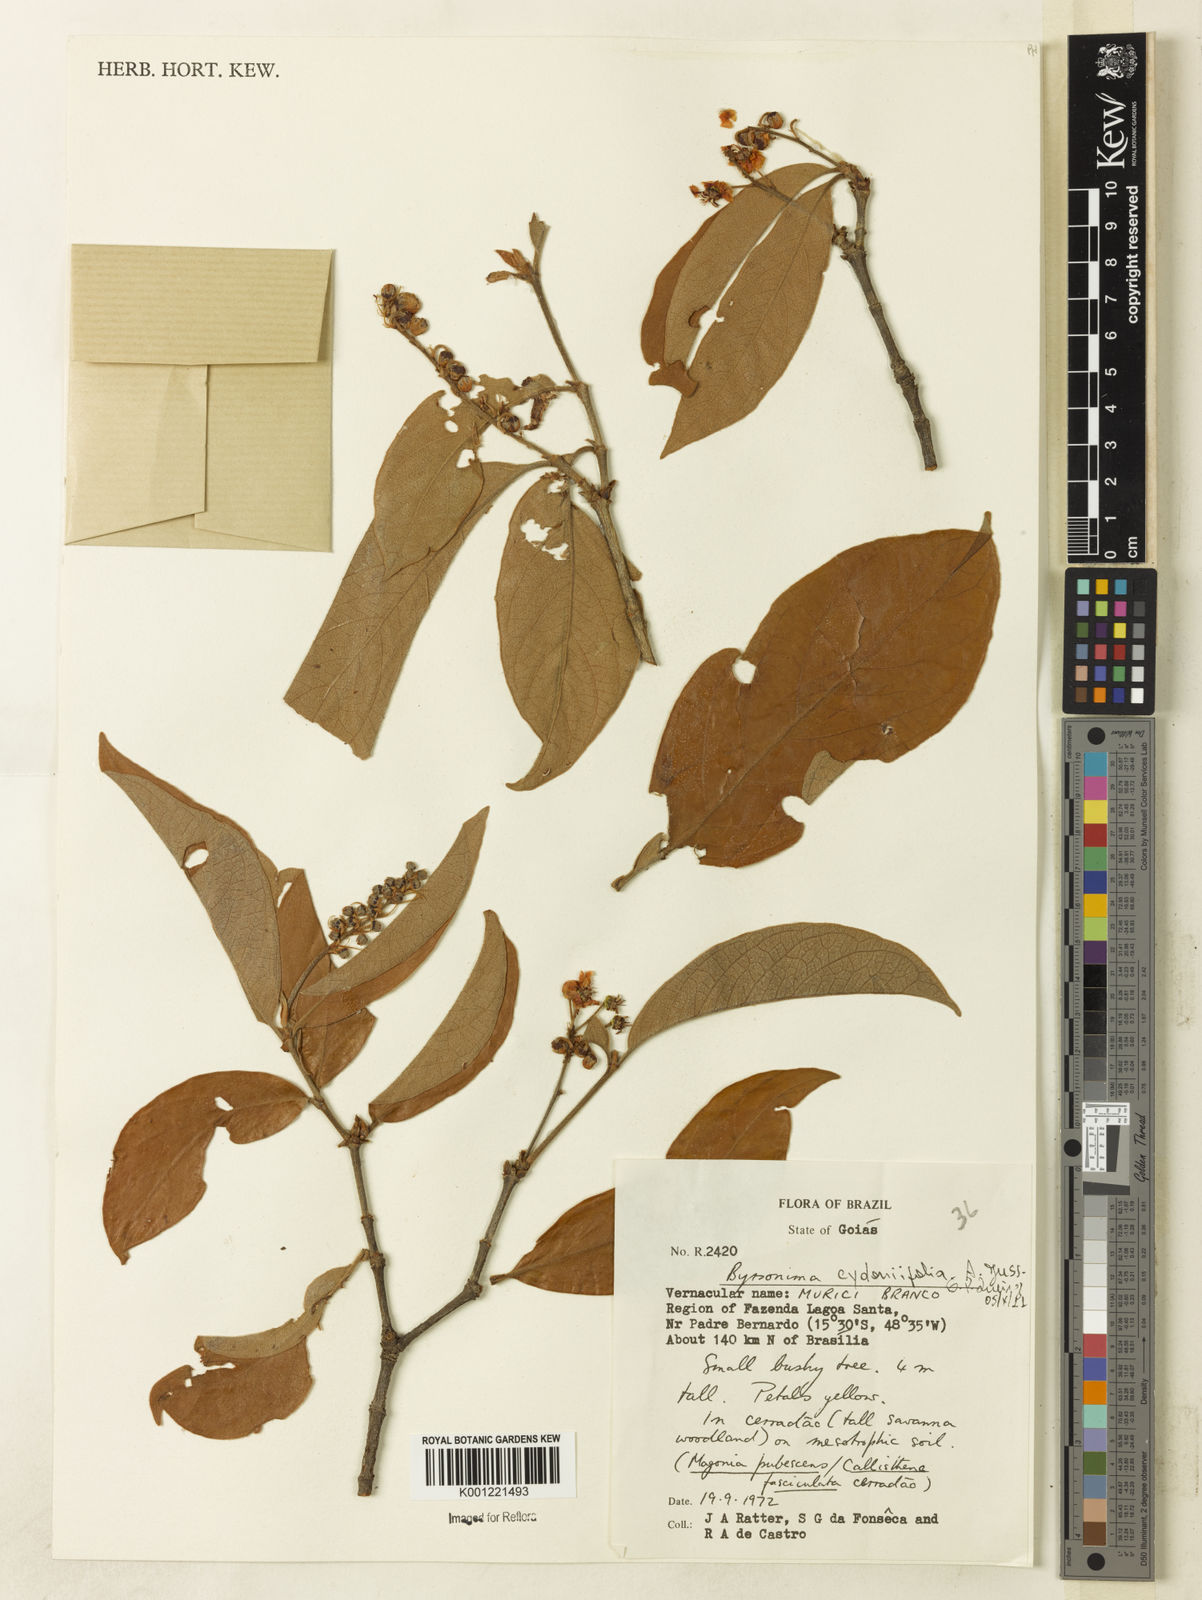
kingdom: Plantae
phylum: Tracheophyta
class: Magnoliopsida
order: Malpighiales
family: Malpighiaceae
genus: Byrsonima
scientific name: Byrsonima cydoniifolia
